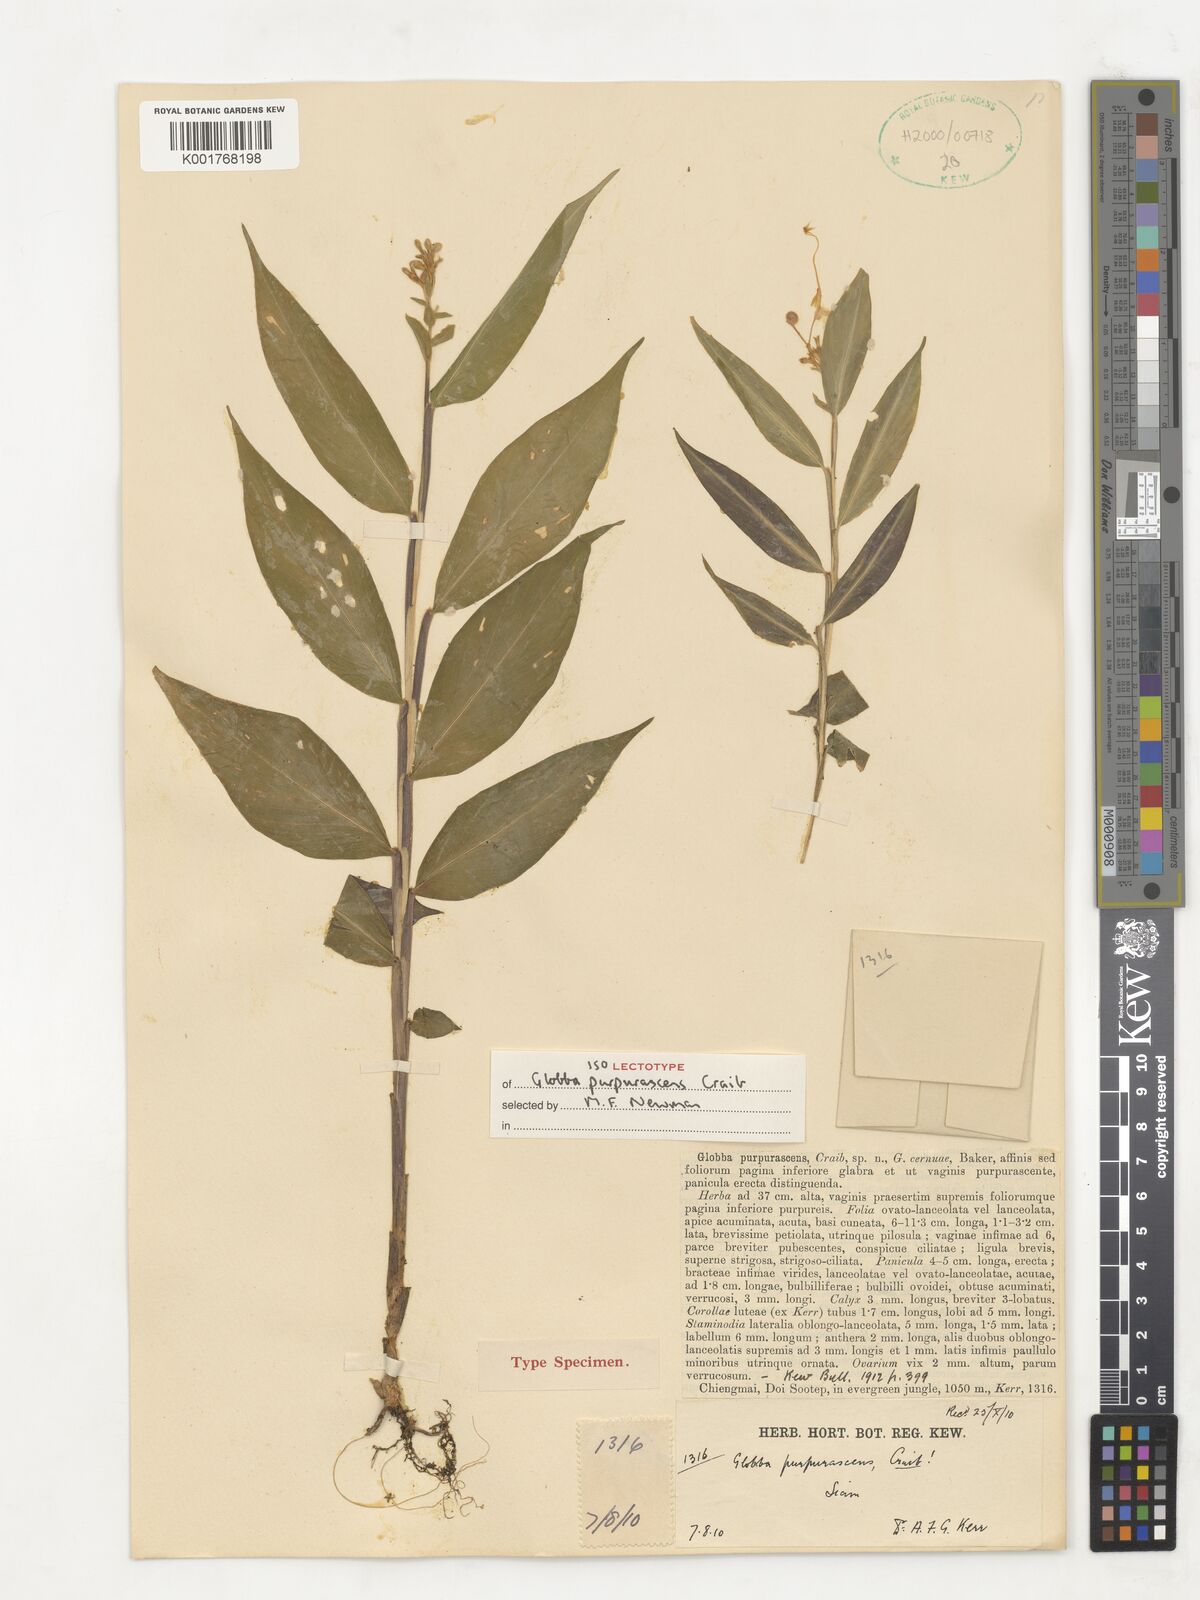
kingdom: Plantae
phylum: Tracheophyta
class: Liliopsida
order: Zingiberales
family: Zingiberaceae
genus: Globba
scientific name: Globba purpurascens
